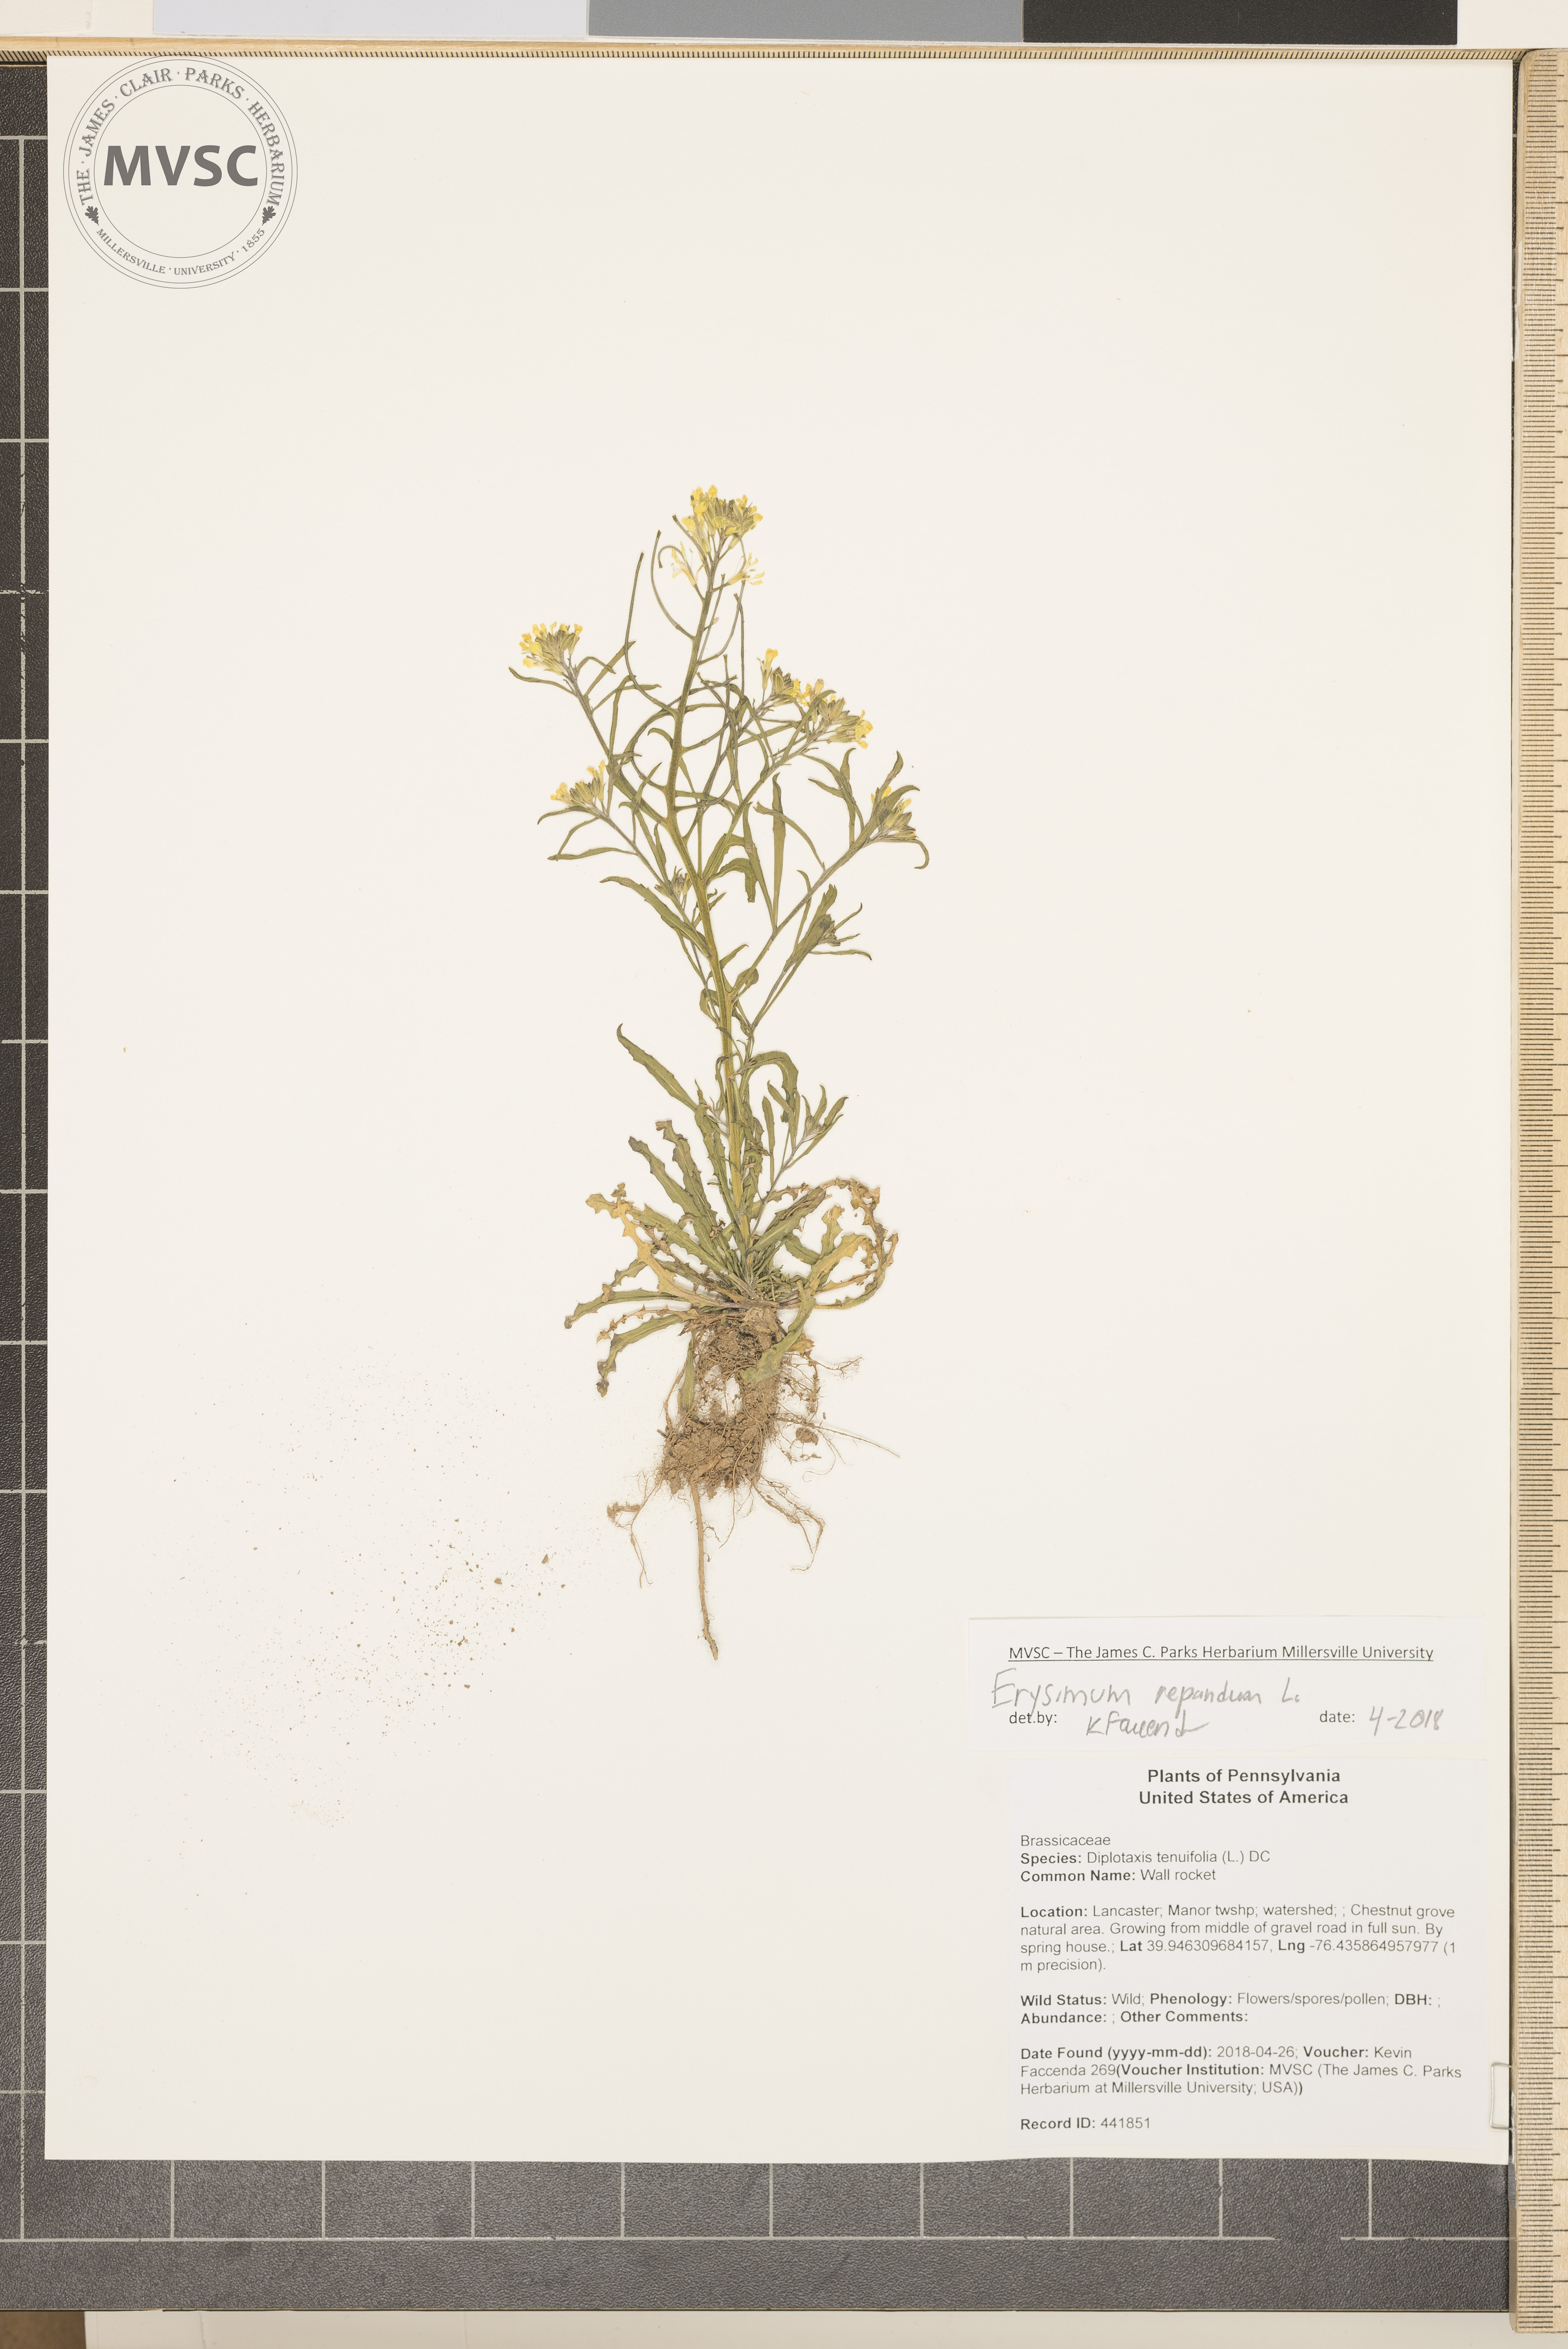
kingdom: Plantae
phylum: Tracheophyta
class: Magnoliopsida
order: Brassicales
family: Brassicaceae
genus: Erysimum
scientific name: Erysimum repandum
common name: Wall rocket
